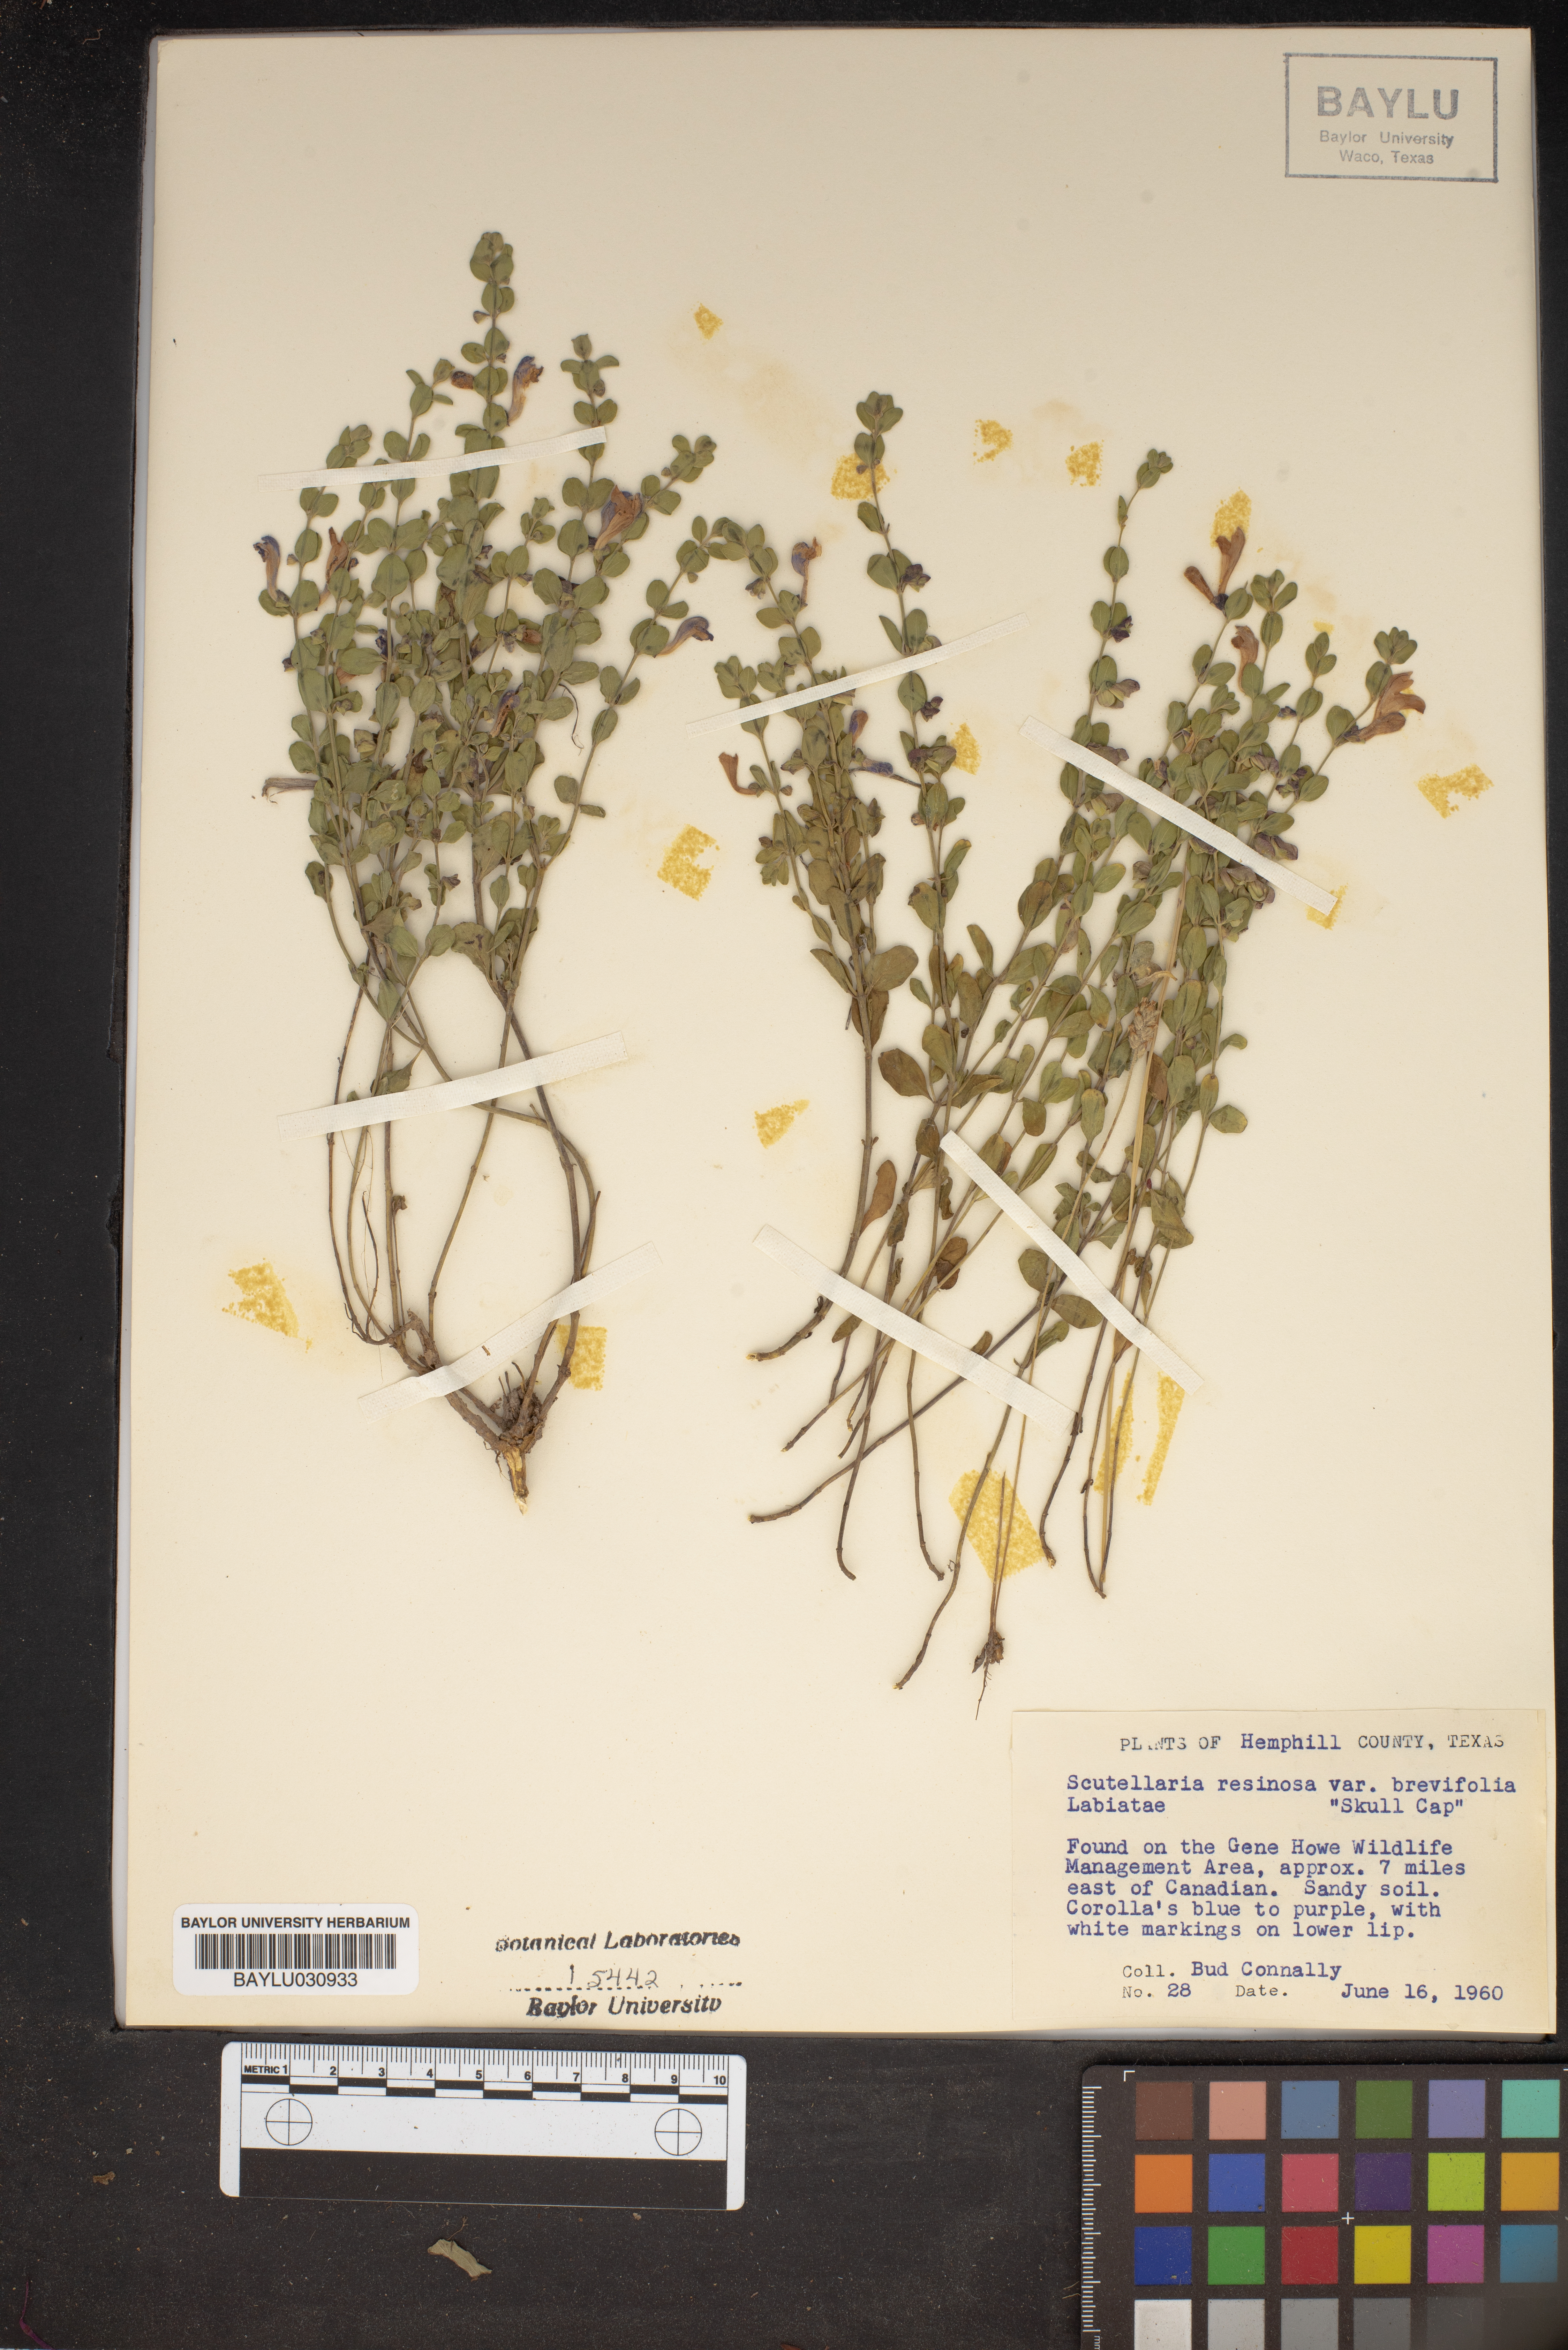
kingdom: Plantae
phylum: Tracheophyta
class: Magnoliopsida
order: Lamiales
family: Lamiaceae
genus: Scutellaria
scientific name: Scutellaria resinosa
